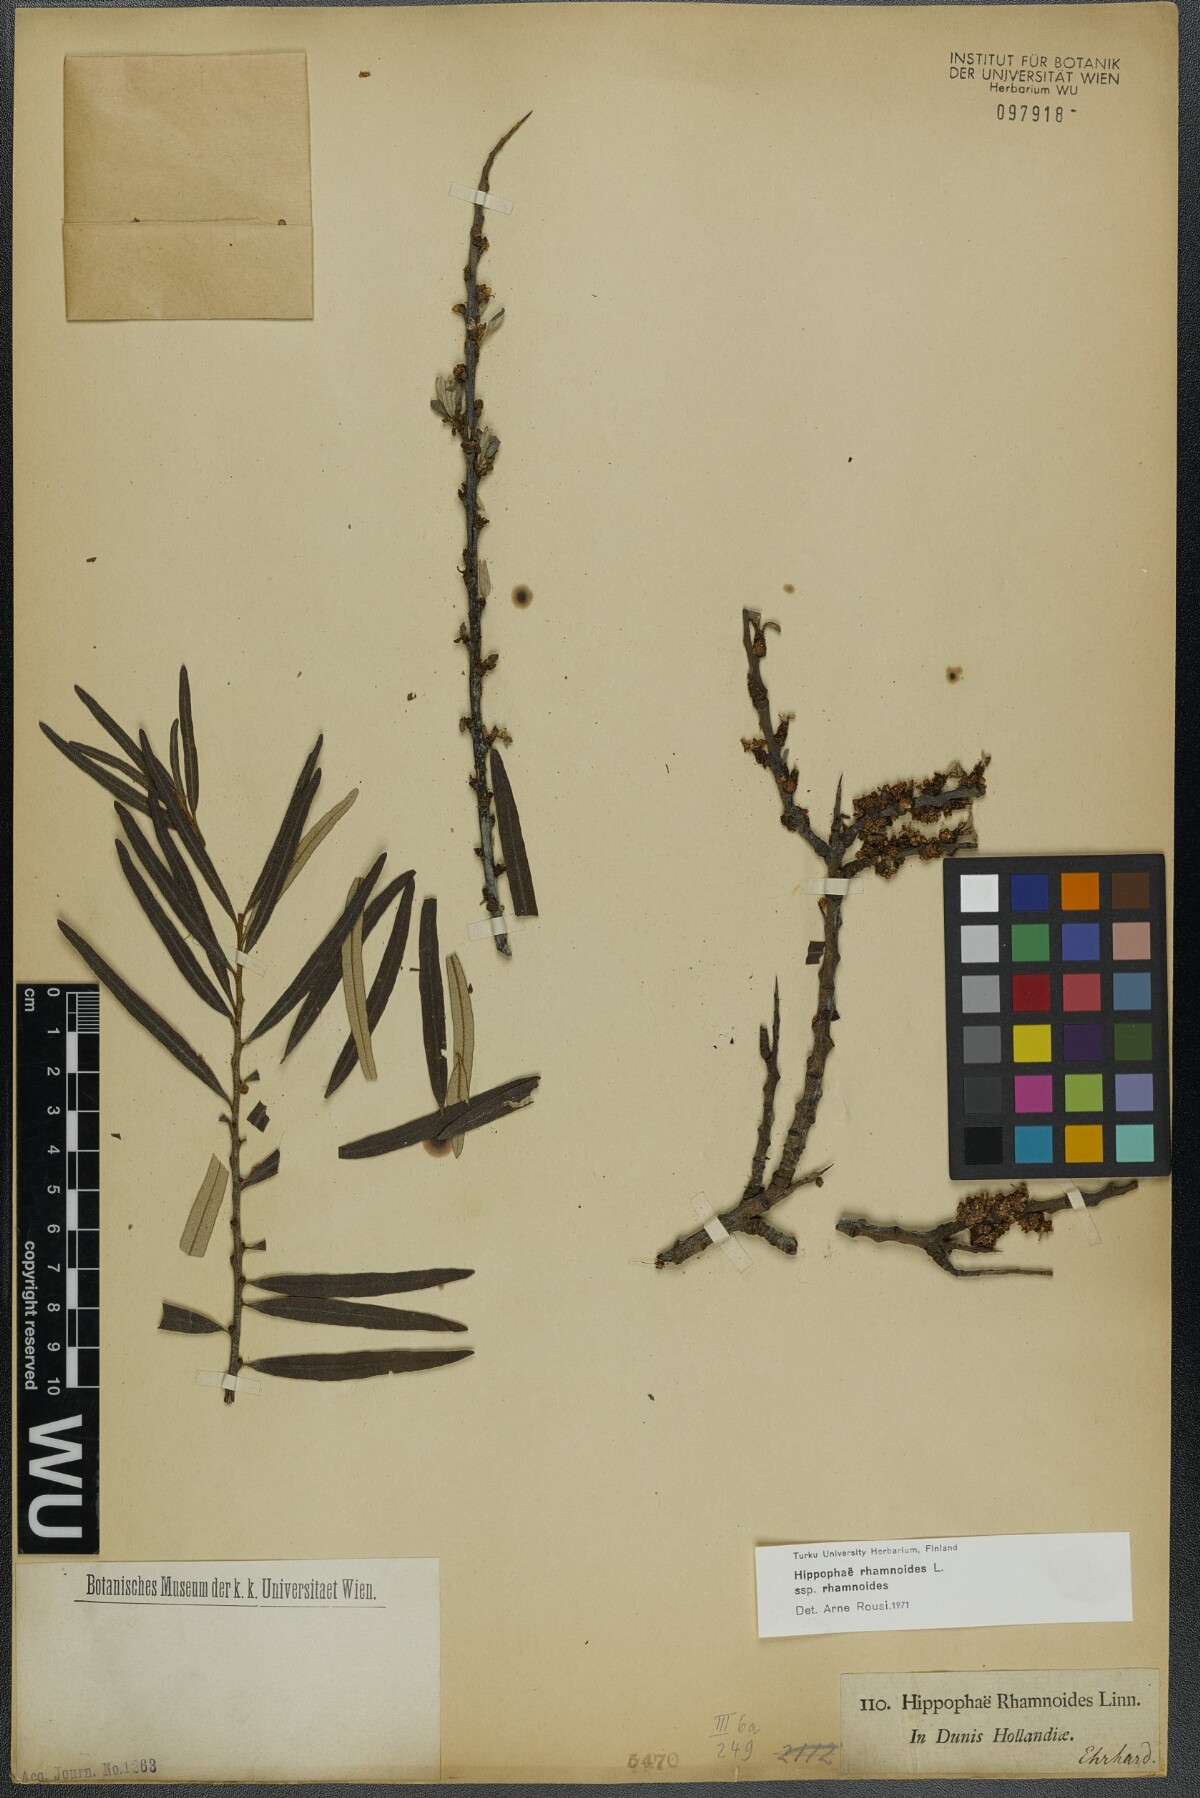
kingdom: Plantae
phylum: Tracheophyta
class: Magnoliopsida
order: Rosales
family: Elaeagnaceae
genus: Hippophae
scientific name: Hippophae rhamnoides
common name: Sea-buckthorn
